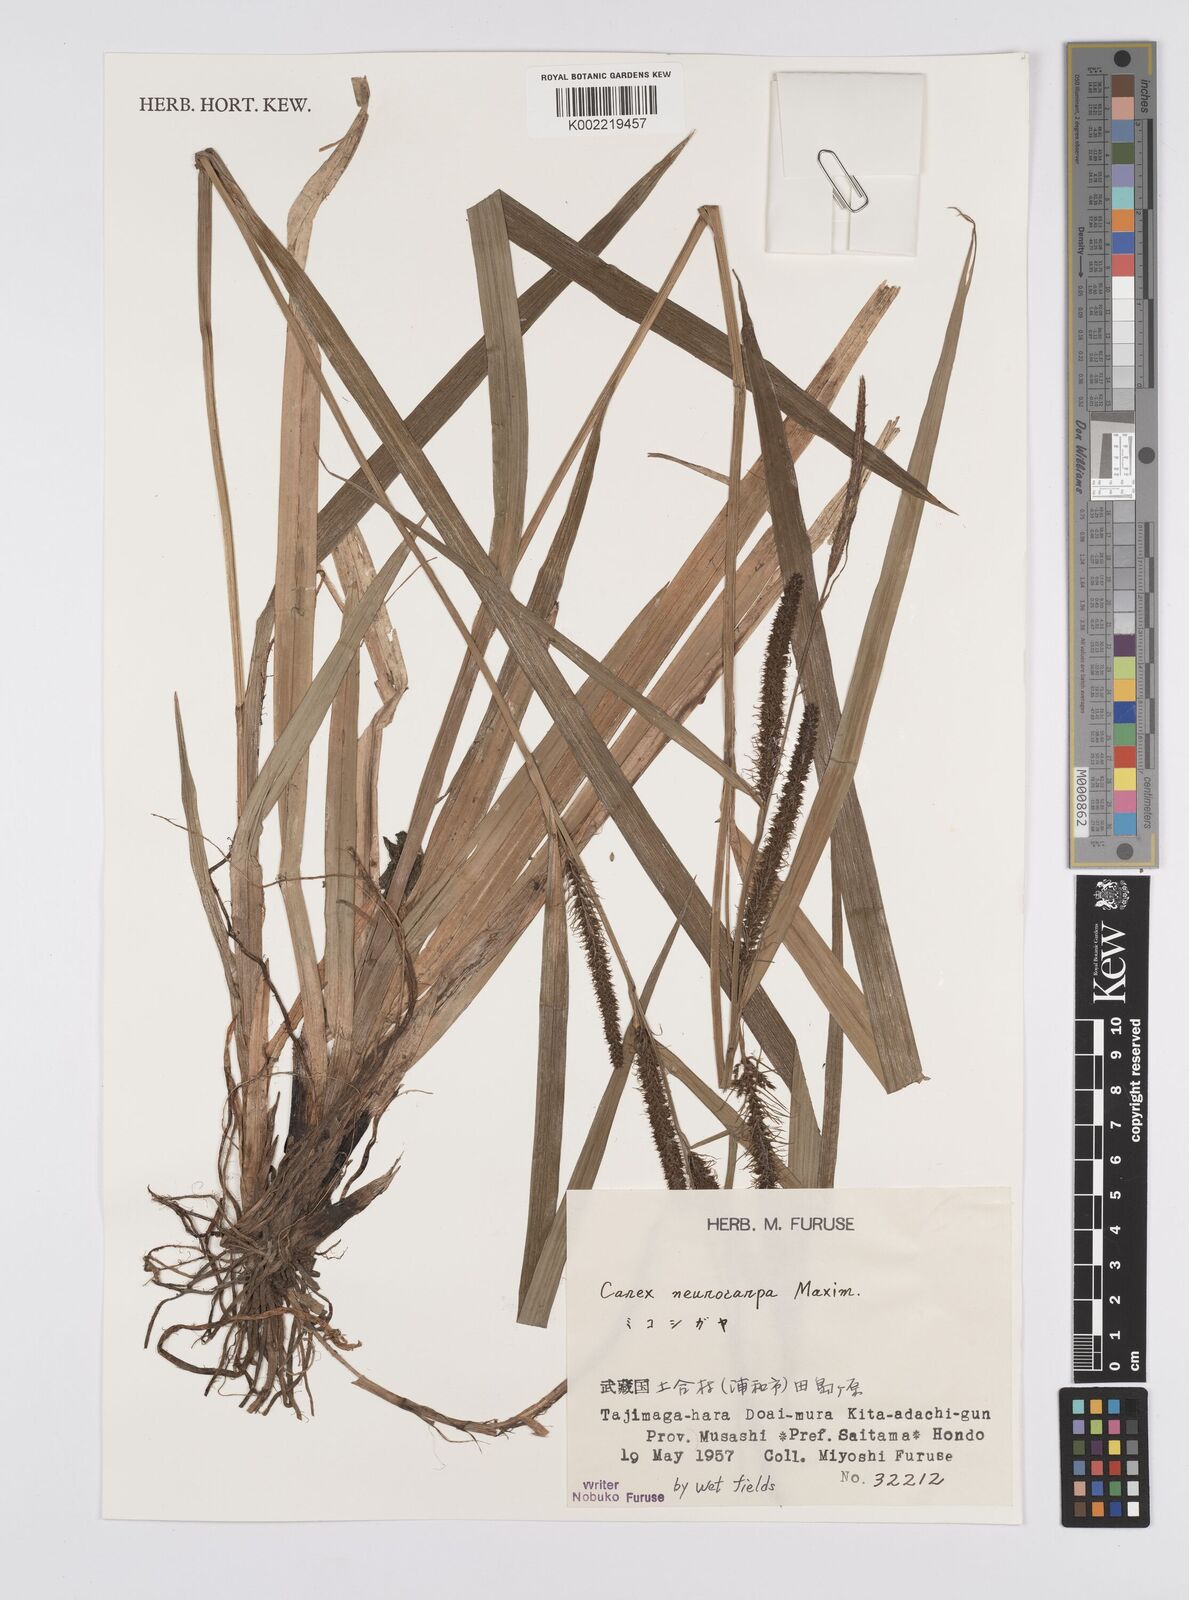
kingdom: Plantae
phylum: Tracheophyta
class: Liliopsida
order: Poales
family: Cyperaceae
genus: Carex
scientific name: Carex neurocarpa
